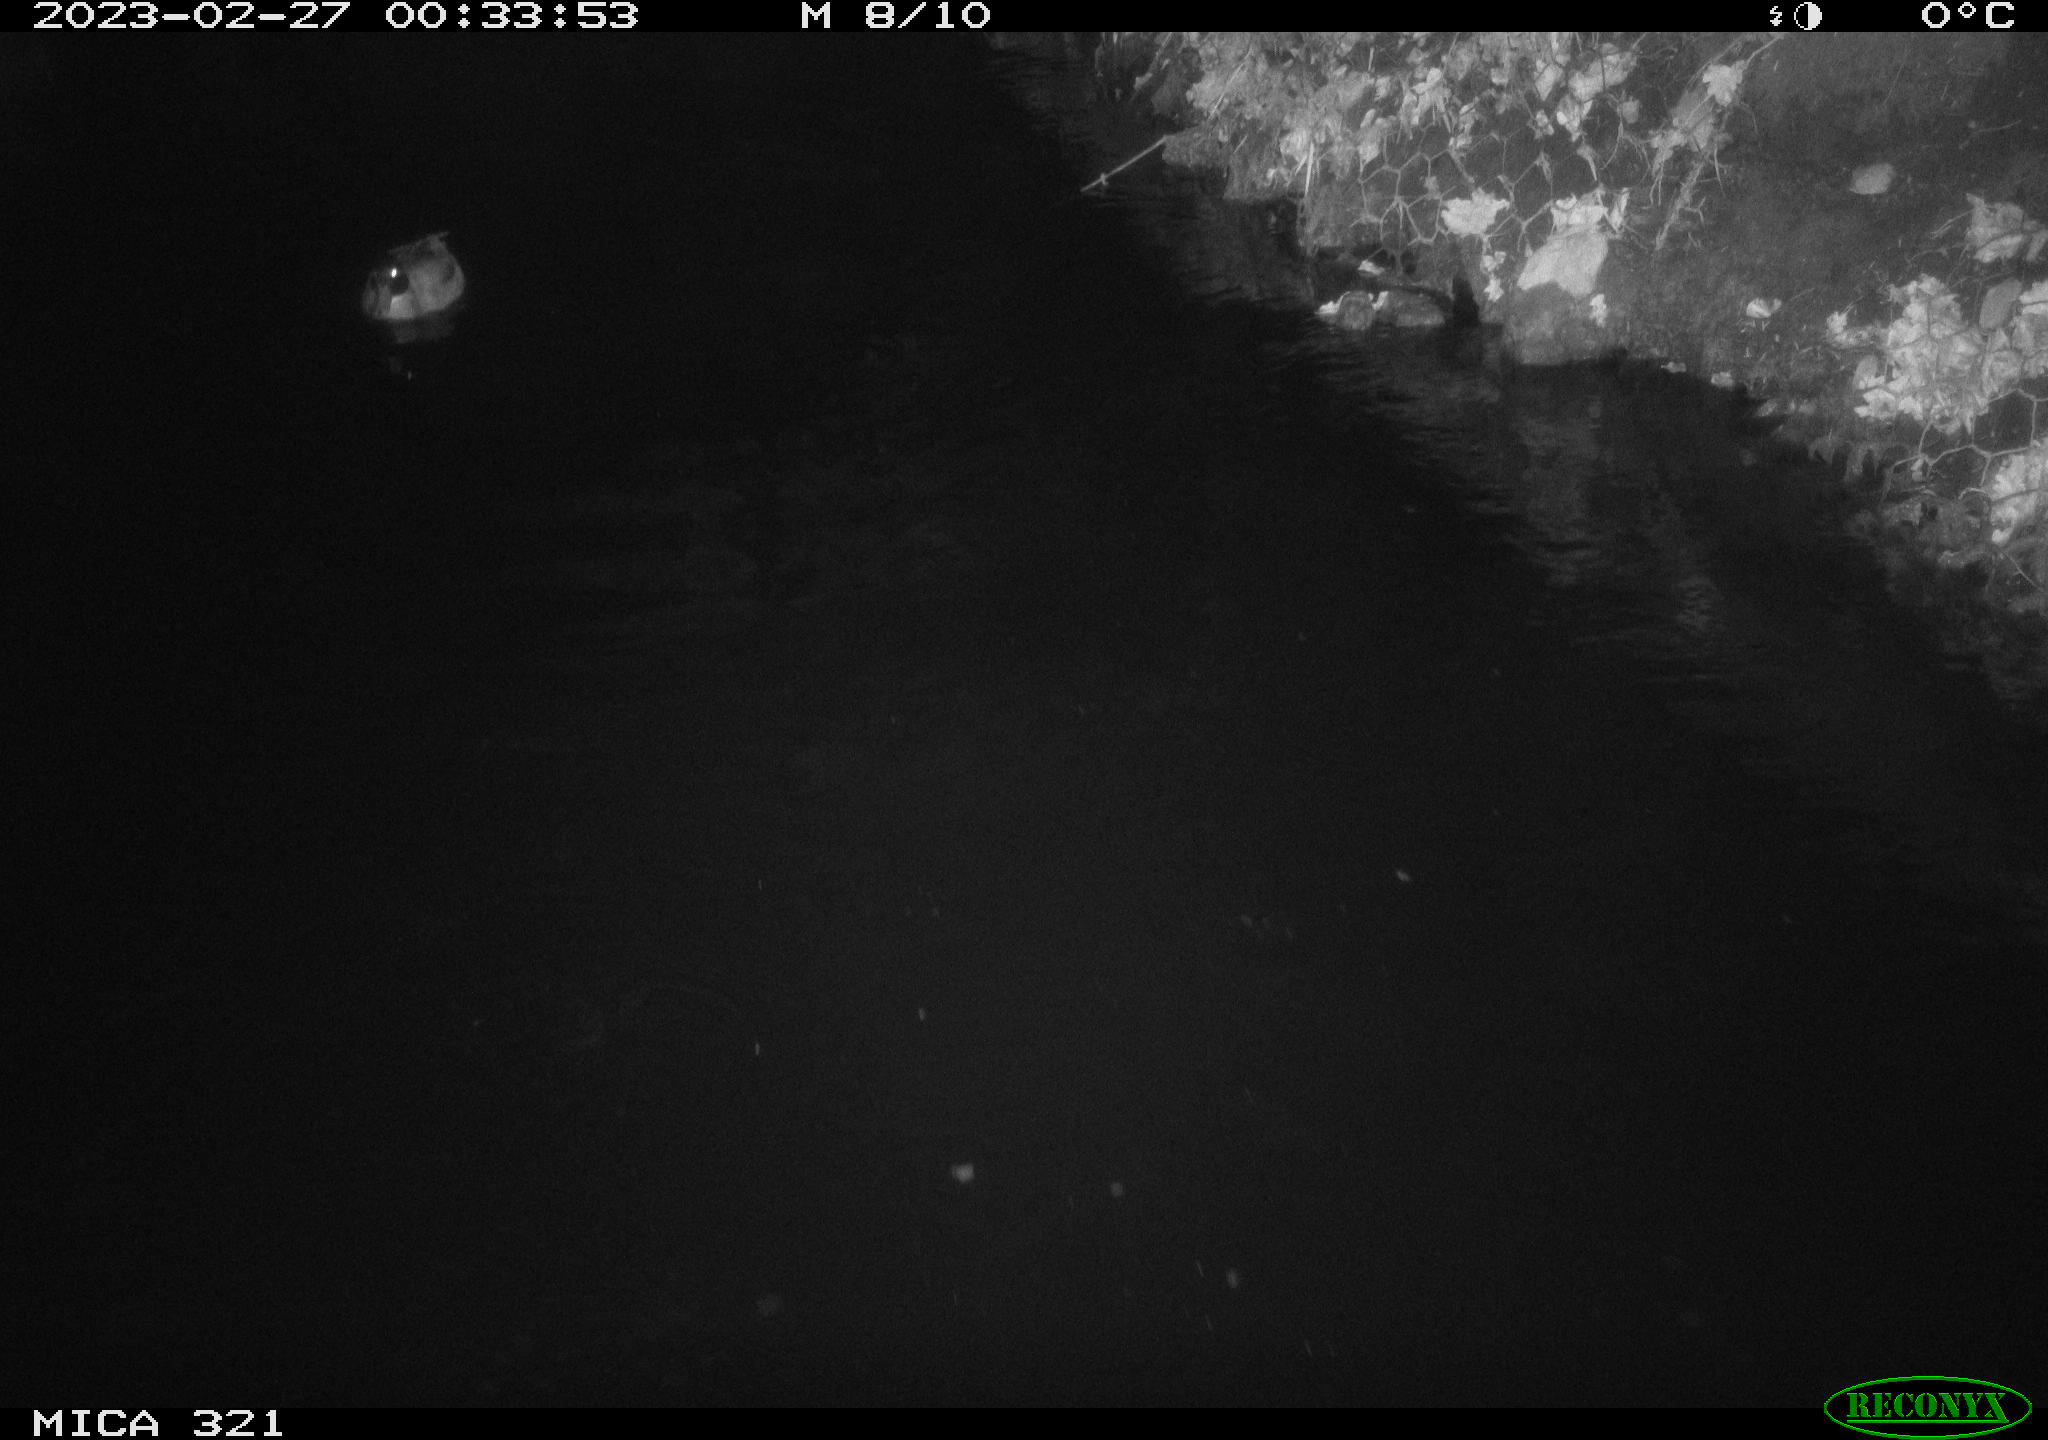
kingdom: Animalia
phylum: Chordata
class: Aves
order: Gruiformes
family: Rallidae
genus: Fulica
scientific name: Fulica atra
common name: Eurasian coot
